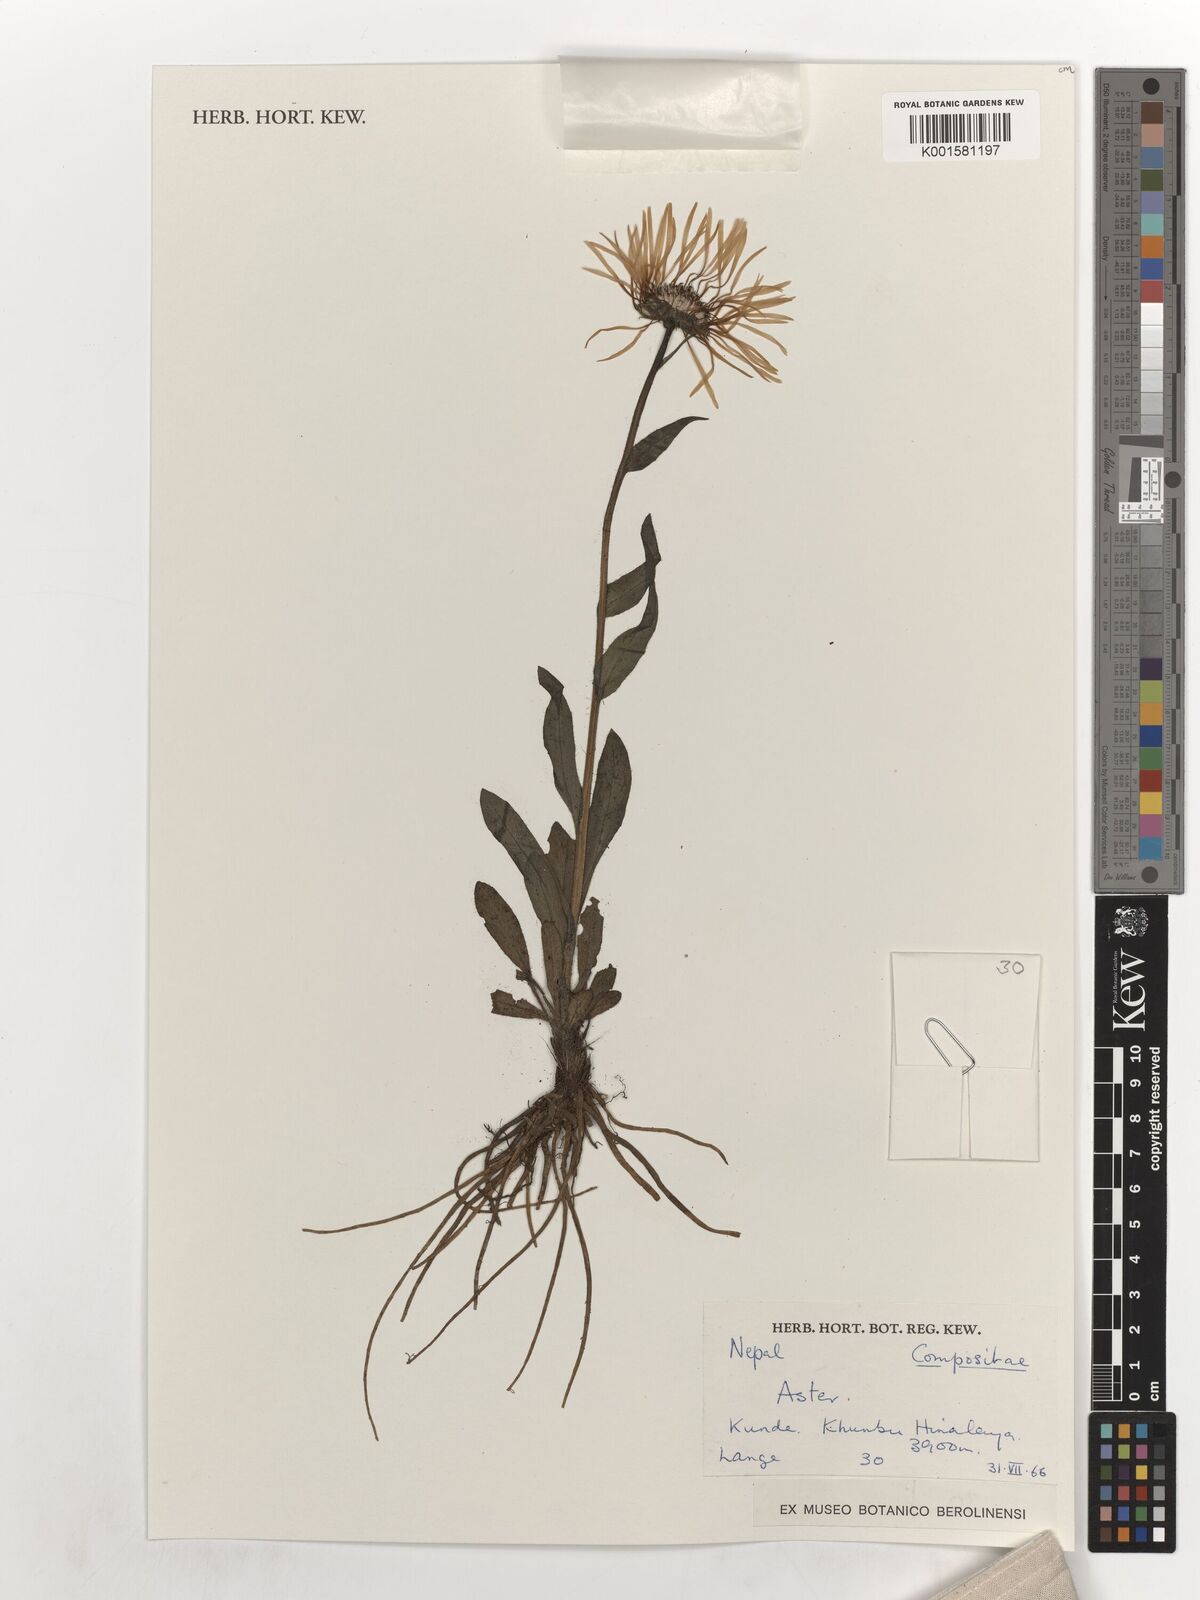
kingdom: Plantae
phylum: Tracheophyta
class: Magnoliopsida
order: Asterales
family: Asteraceae
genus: Aster
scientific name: Aster
